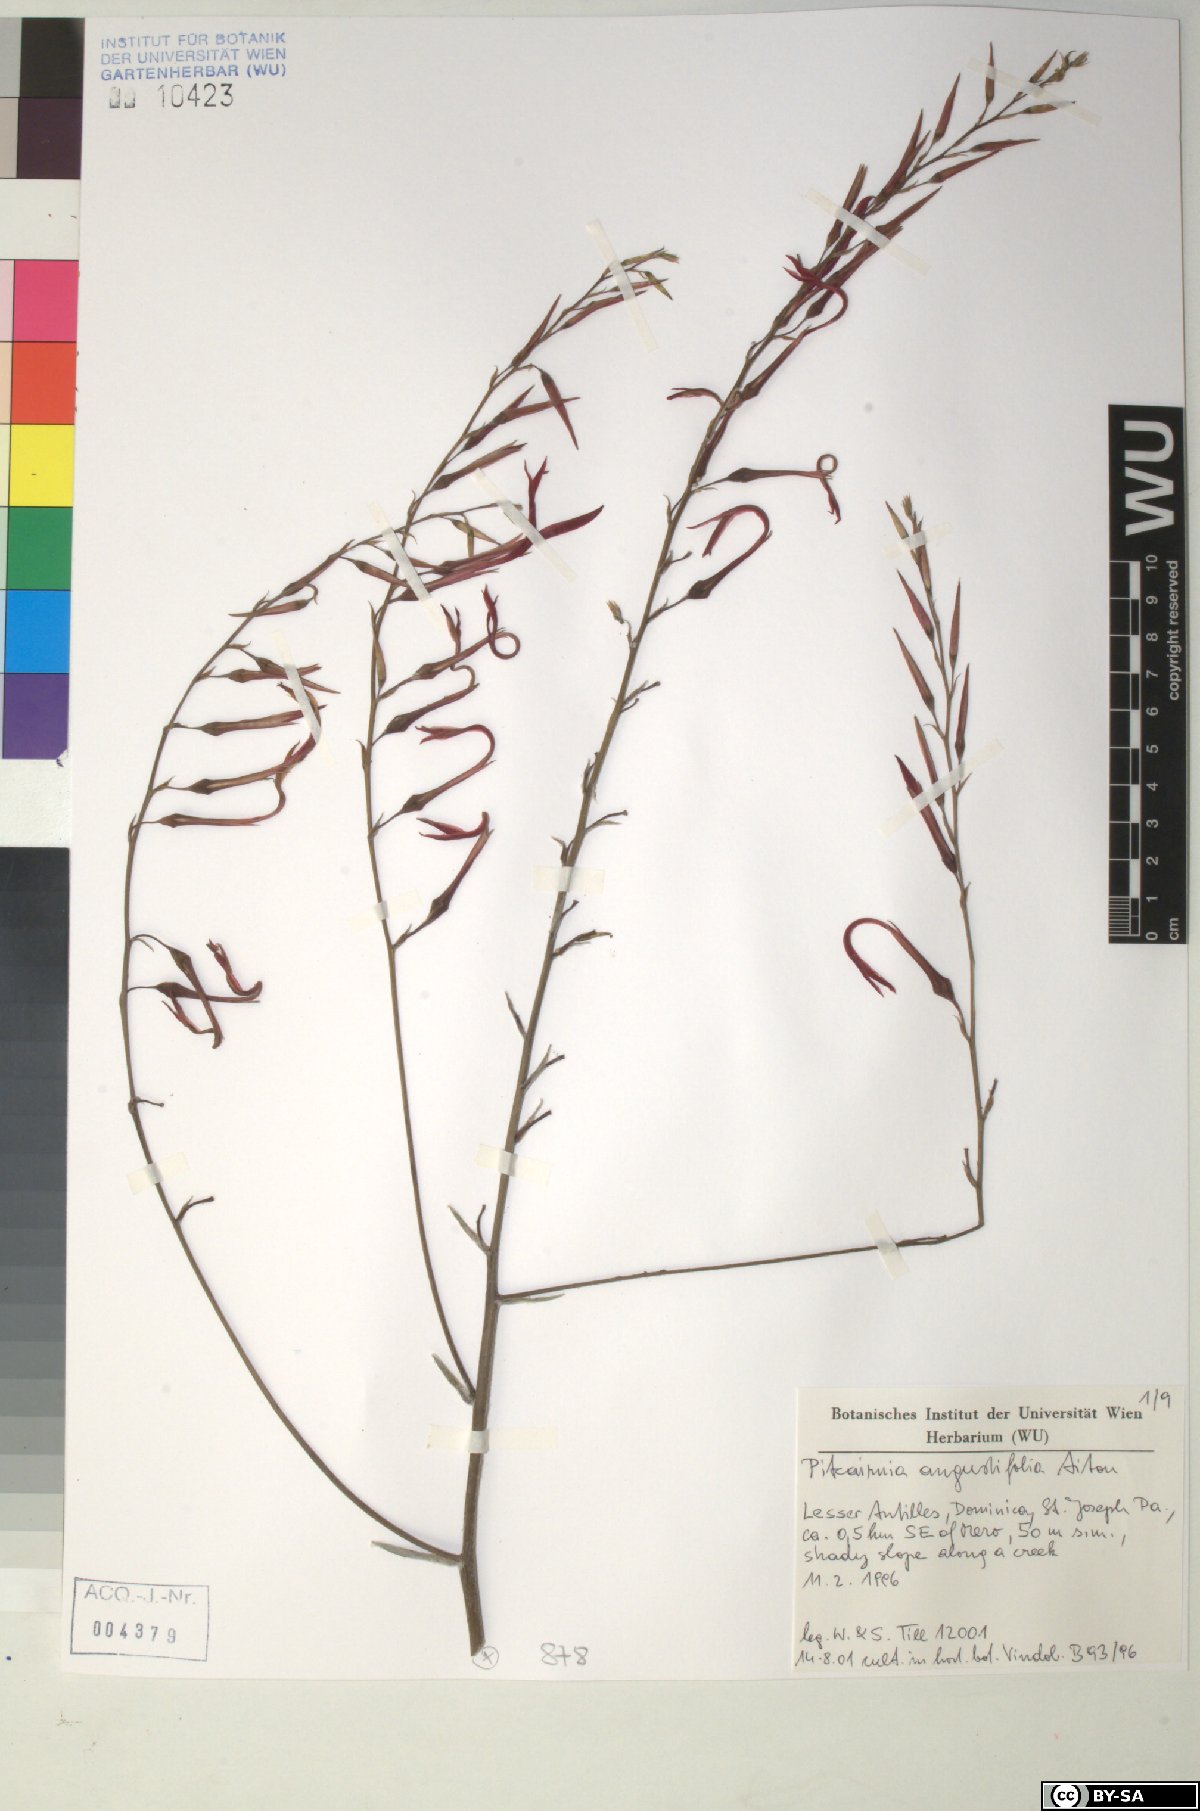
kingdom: Plantae
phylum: Tracheophyta
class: Liliopsida
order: Poales
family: Bromeliaceae
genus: Pitcairnia
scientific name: Pitcairnia angustifolia
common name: Clapper
